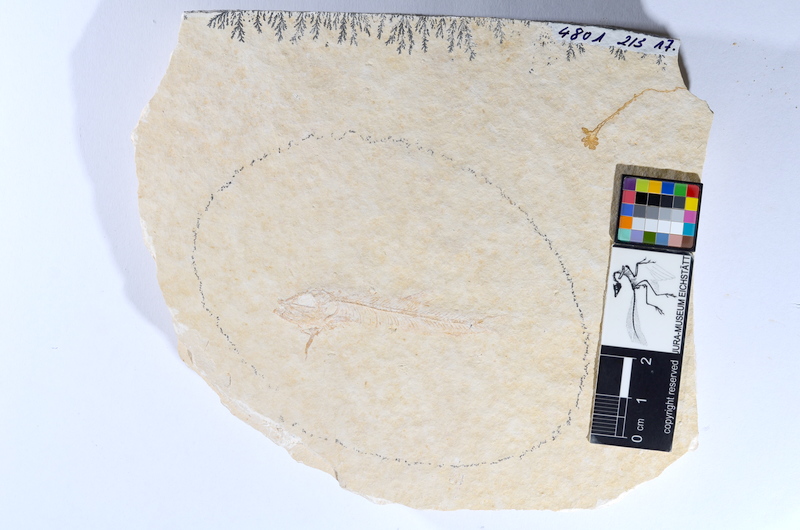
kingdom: Animalia
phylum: Chordata
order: Salmoniformes
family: Orthogonikleithridae
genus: Leptolepides
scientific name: Leptolepides sprattiformis
